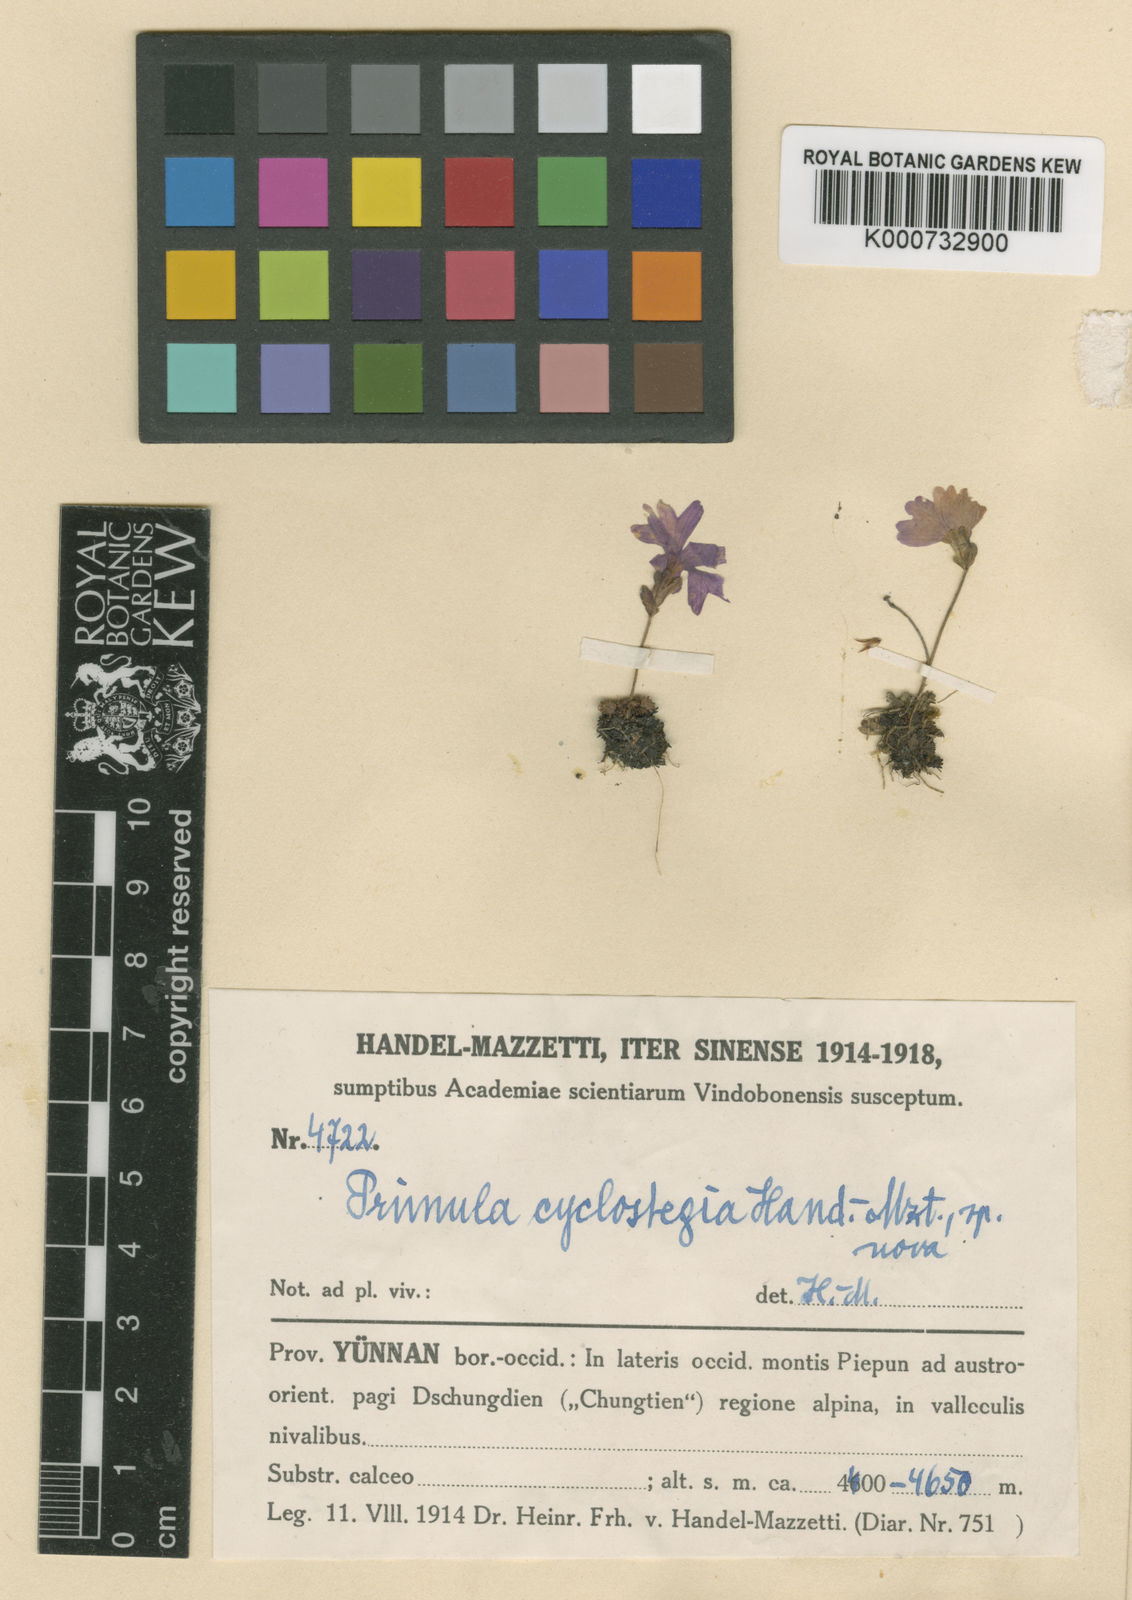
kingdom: Plantae
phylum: Tracheophyta
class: Magnoliopsida
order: Ericales
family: Primulaceae
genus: Primula
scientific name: Primula bella
